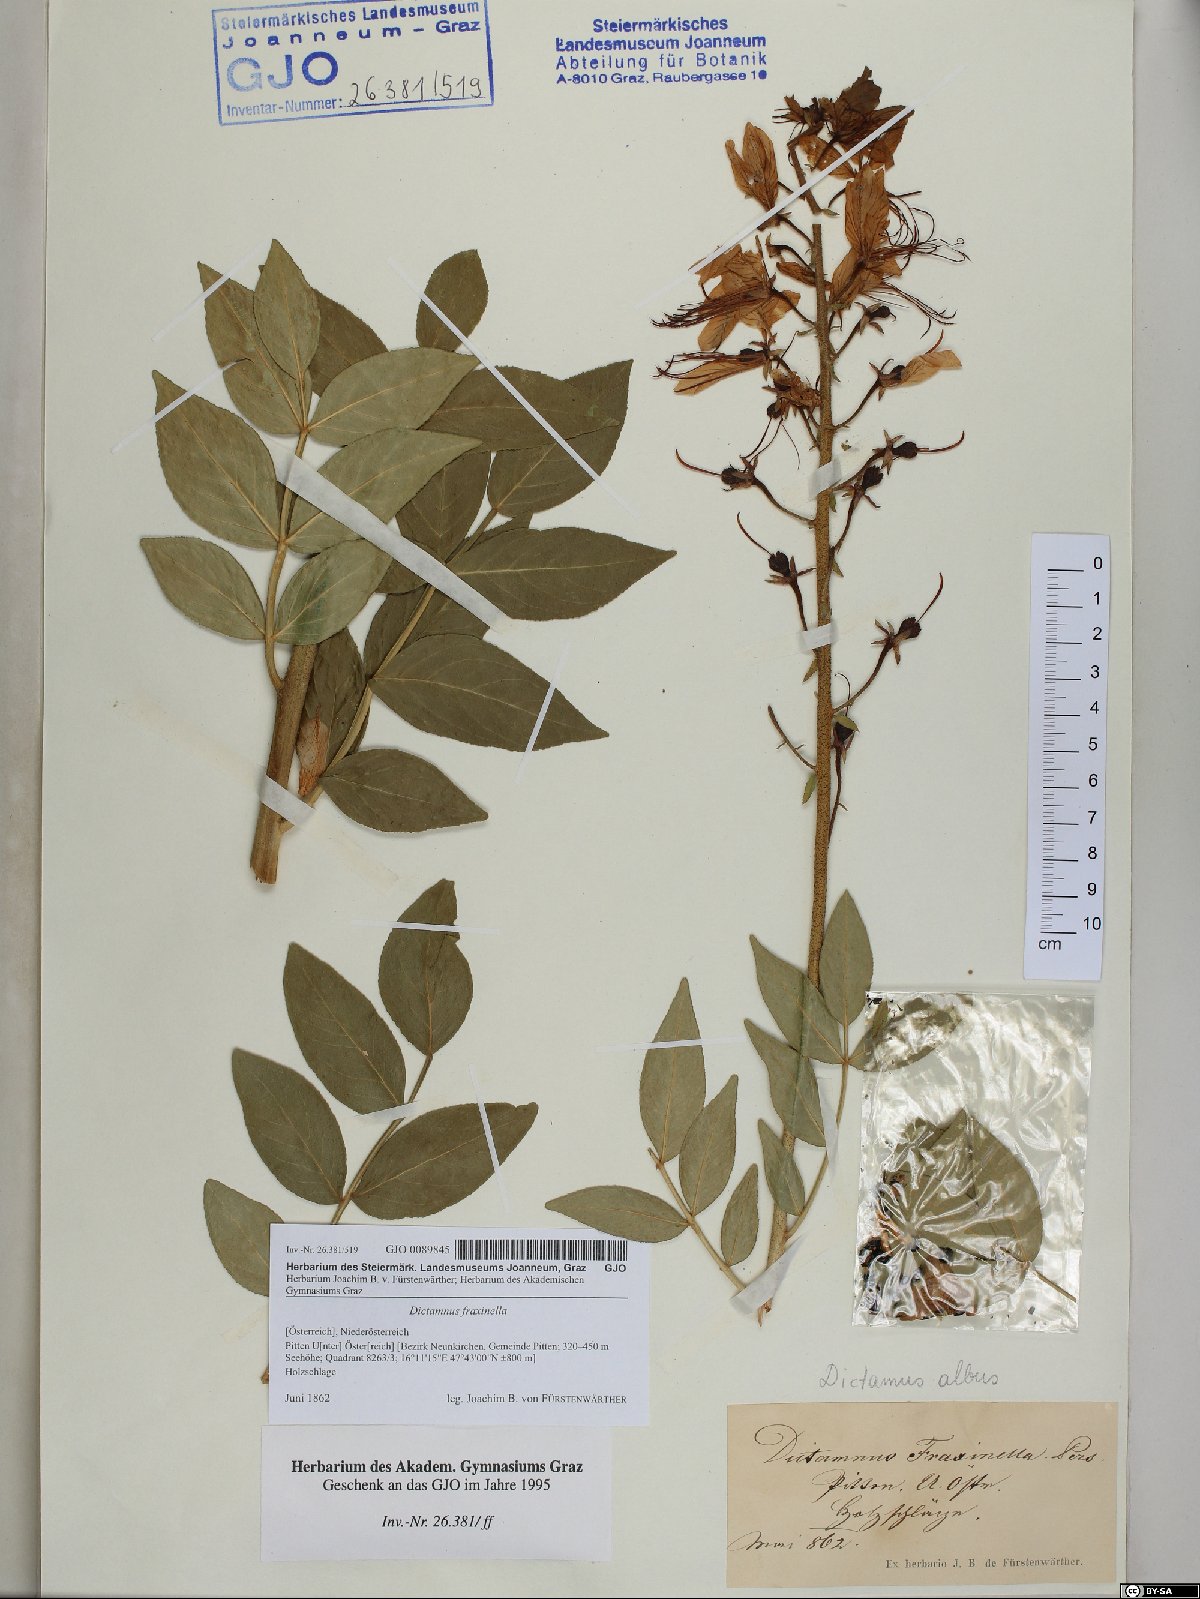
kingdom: Plantae
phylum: Tracheophyta
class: Magnoliopsida
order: Sapindales
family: Rutaceae
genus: Dictamnus
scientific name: Dictamnus albus
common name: Gasplant
